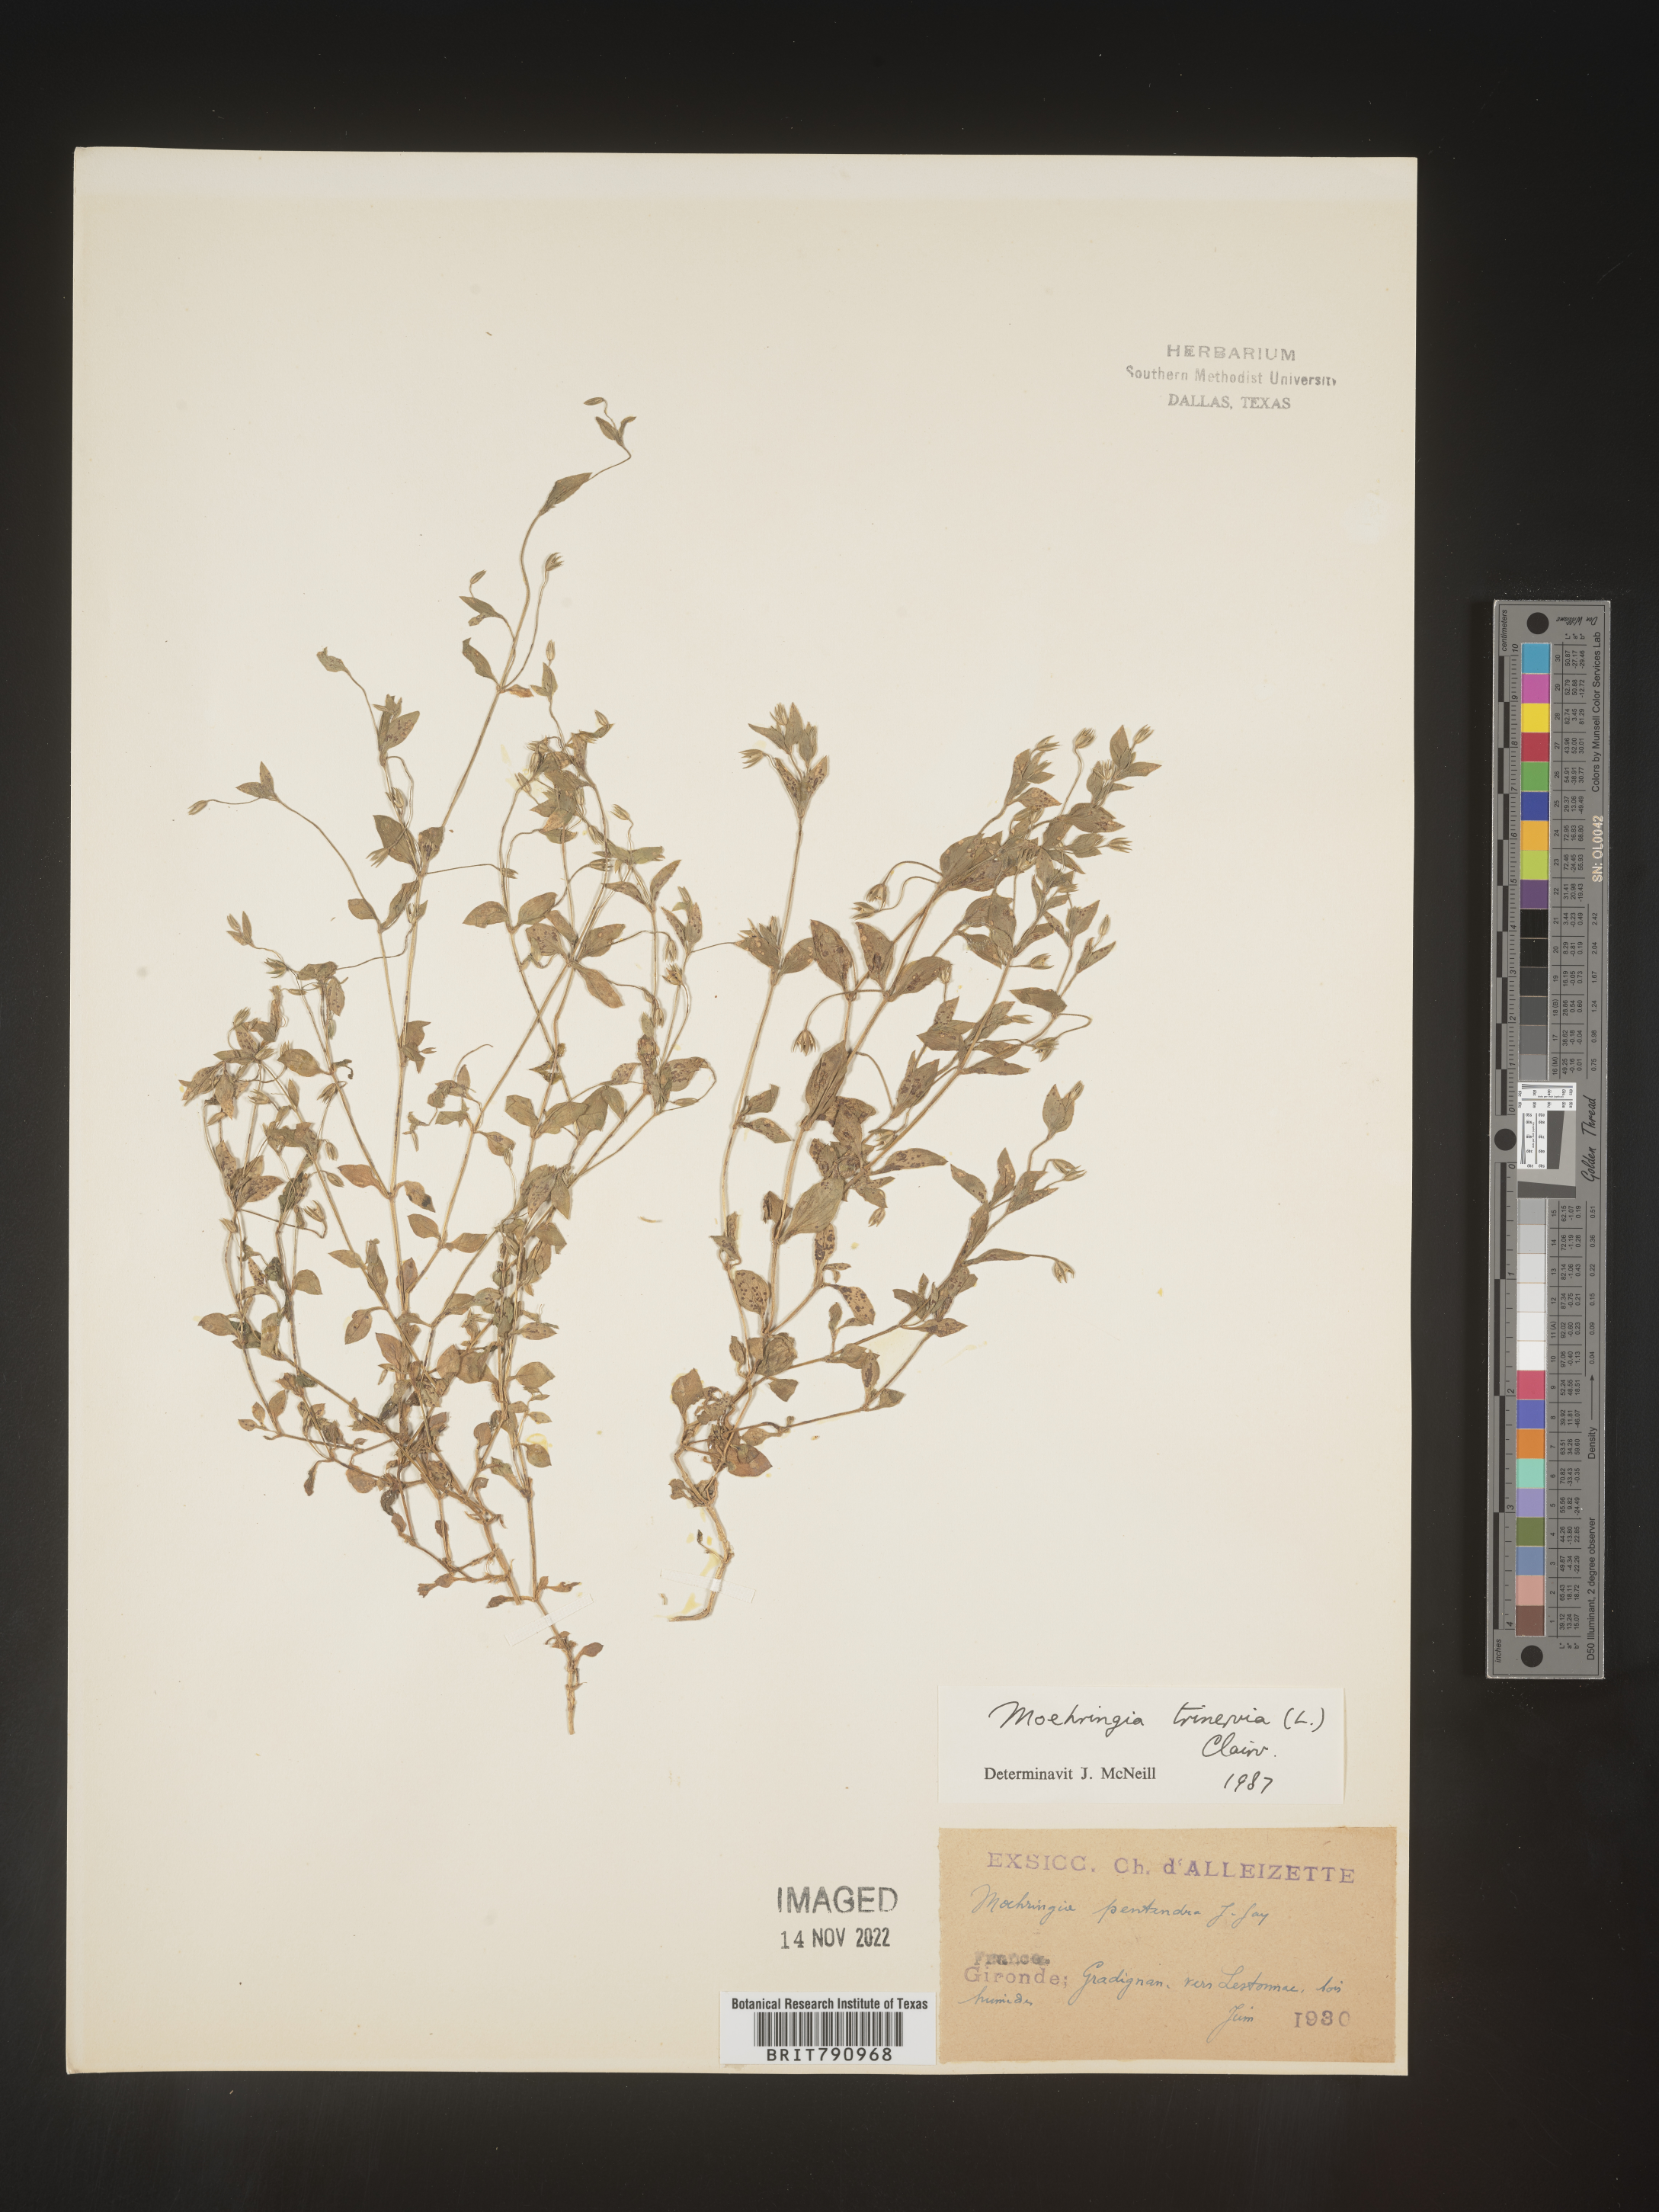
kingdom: Plantae
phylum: Tracheophyta
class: Magnoliopsida
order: Caryophyllales
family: Caryophyllaceae
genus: Moehringia
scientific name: Moehringia
